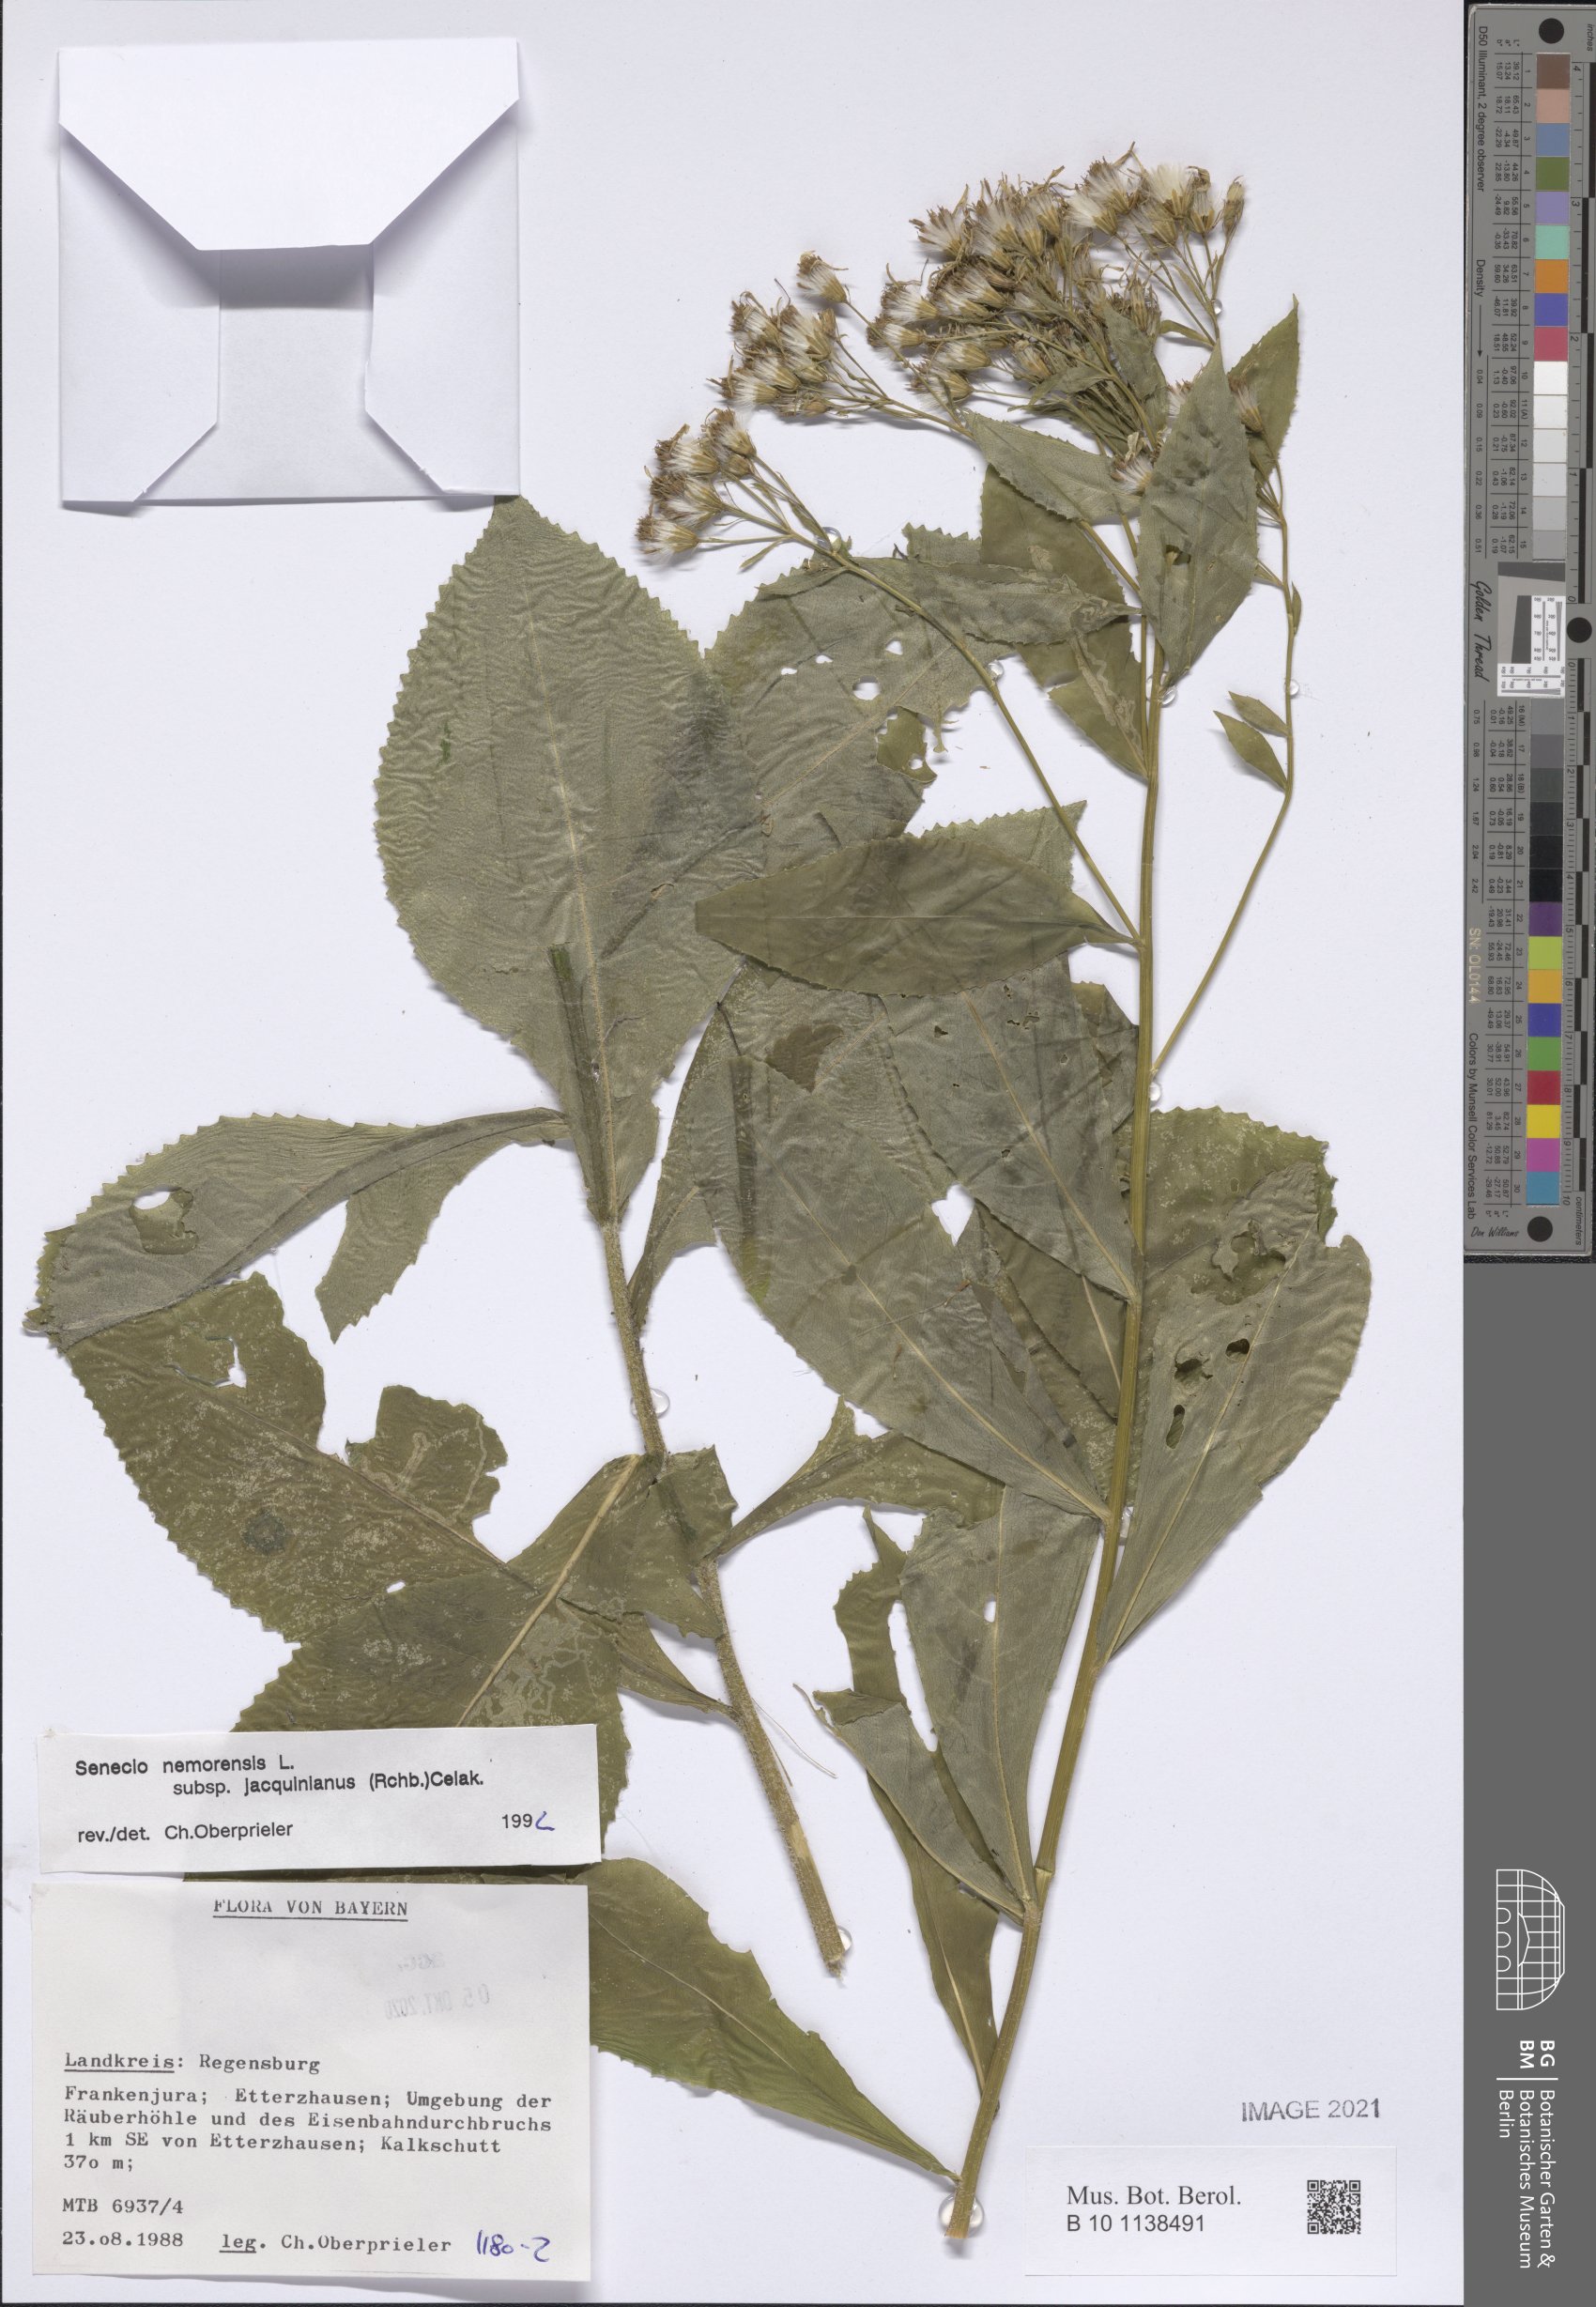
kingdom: Plantae
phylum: Tracheophyta
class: Magnoliopsida
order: Asterales
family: Asteraceae
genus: Senecio
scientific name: Senecio germanicus
